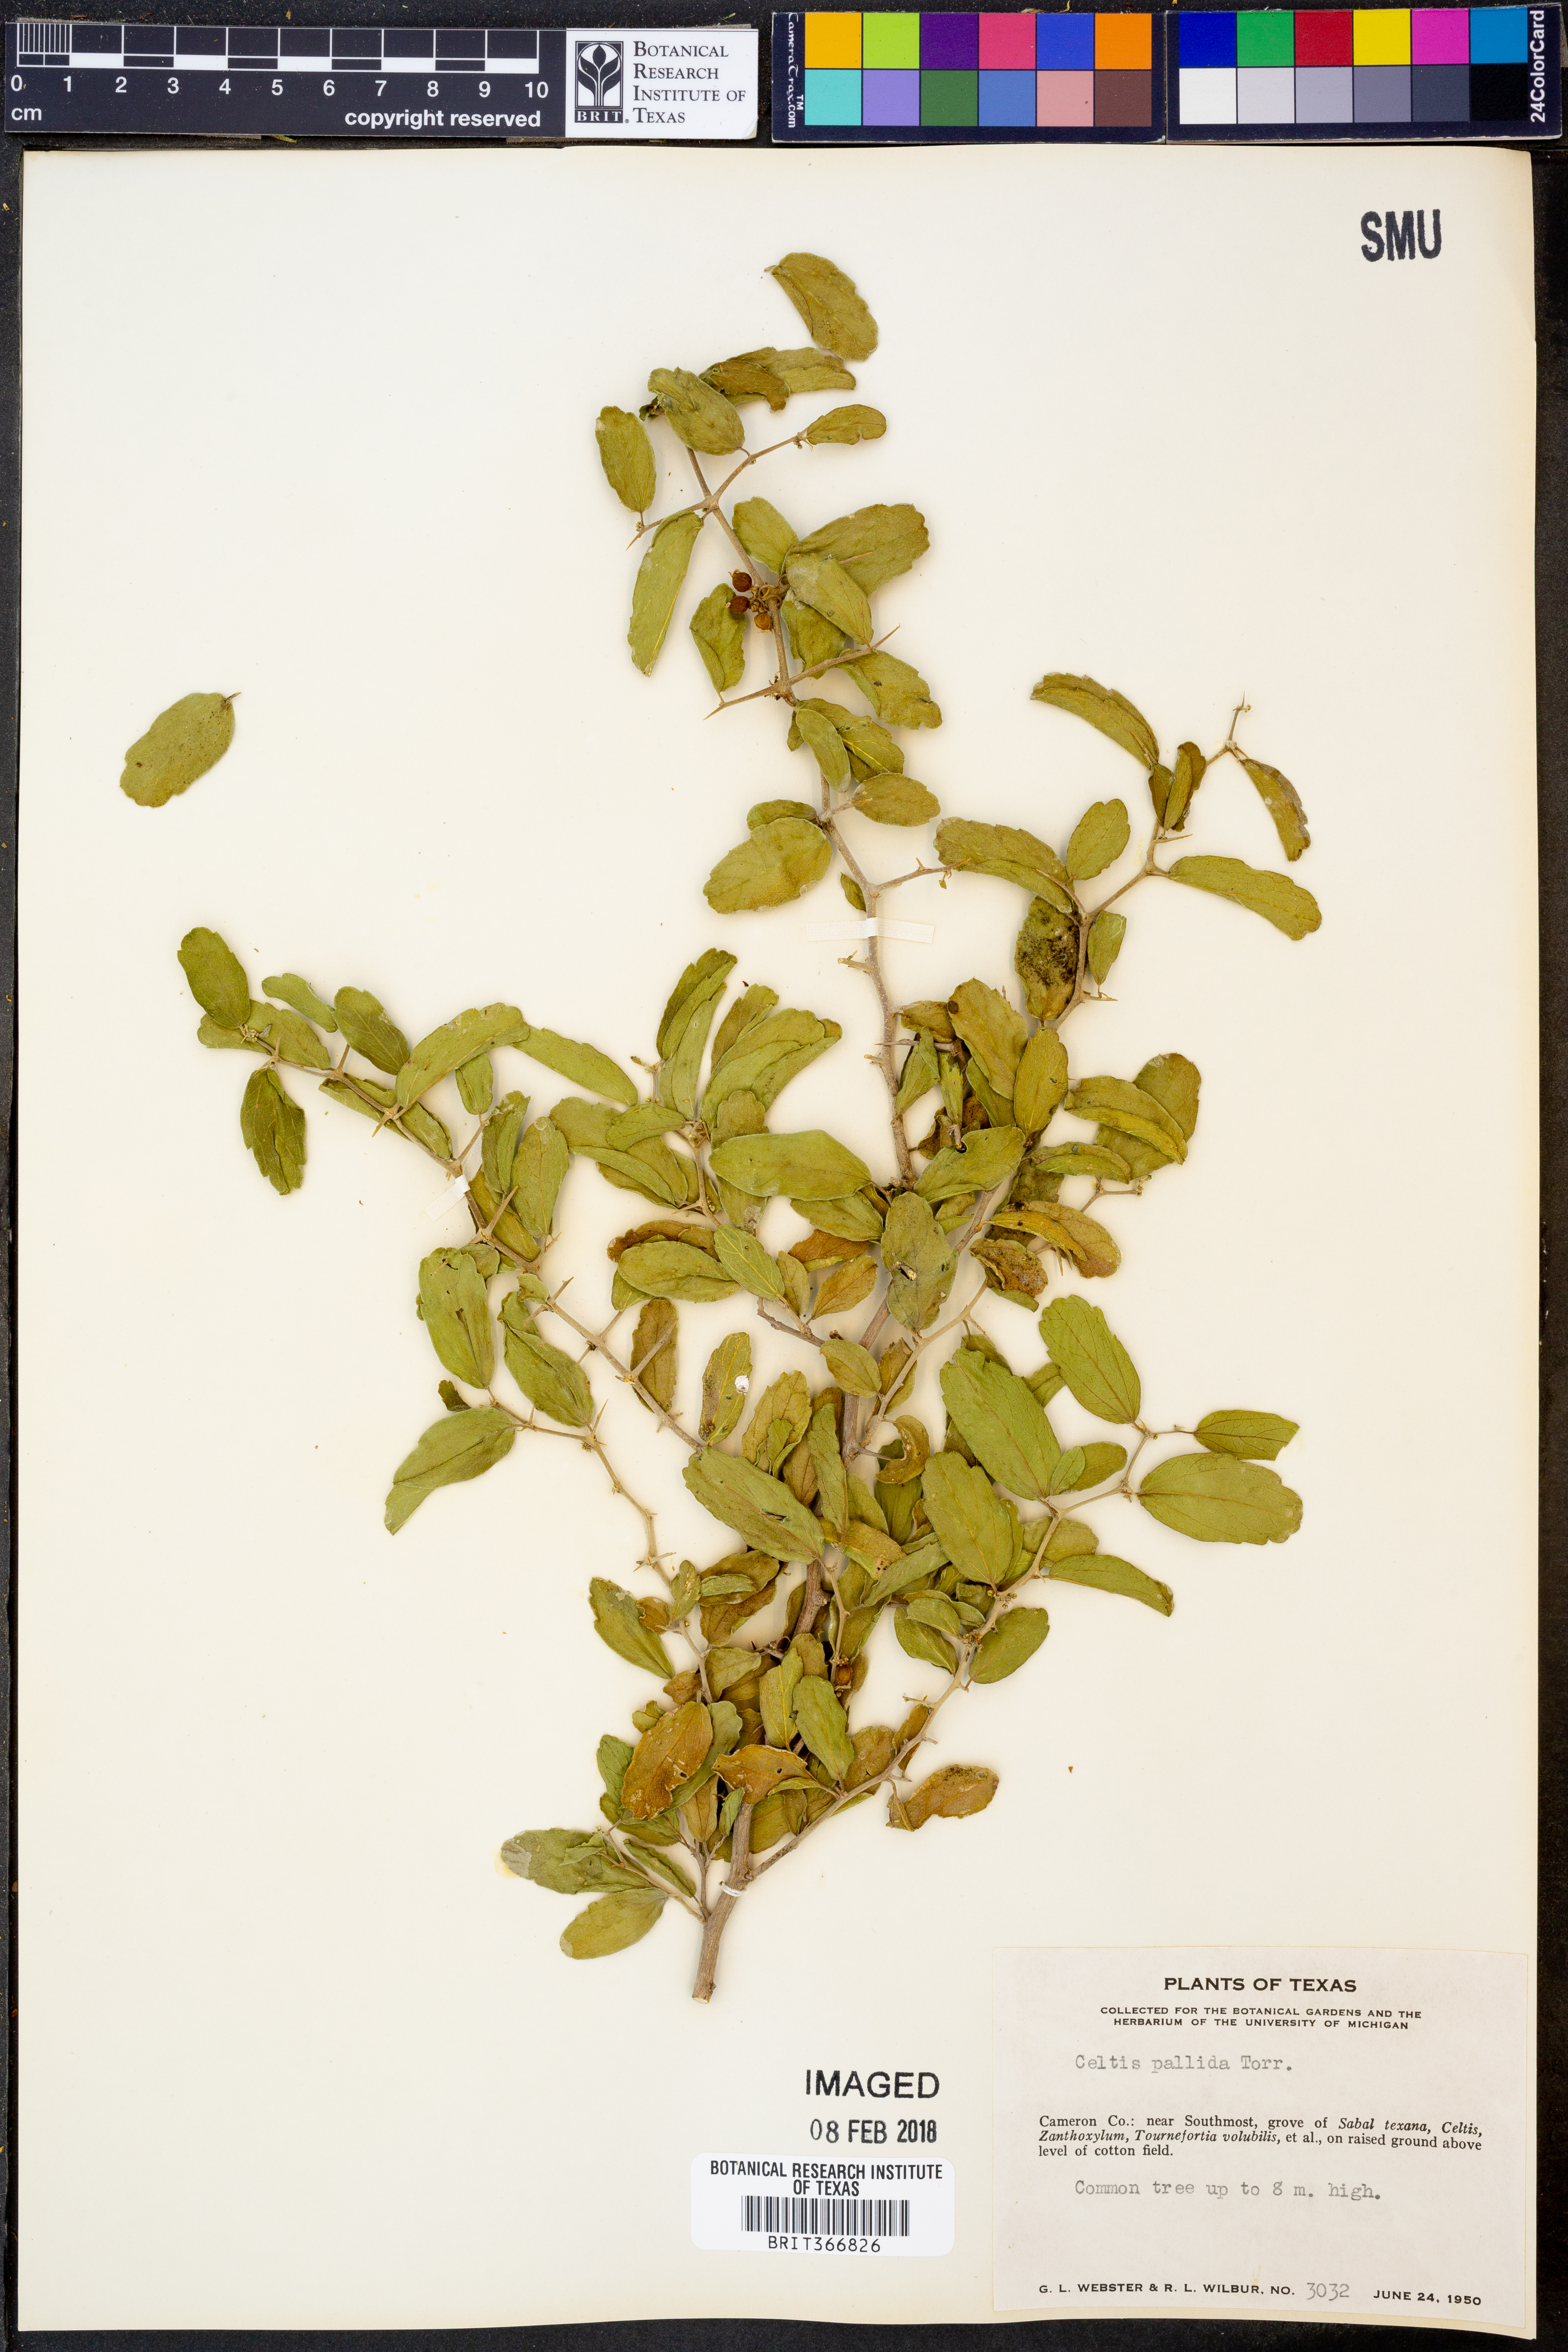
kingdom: Plantae
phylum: Tracheophyta
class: Magnoliopsida
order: Rosales
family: Cannabaceae
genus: Celtis
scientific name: Celtis pallida
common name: Desert hackberry
